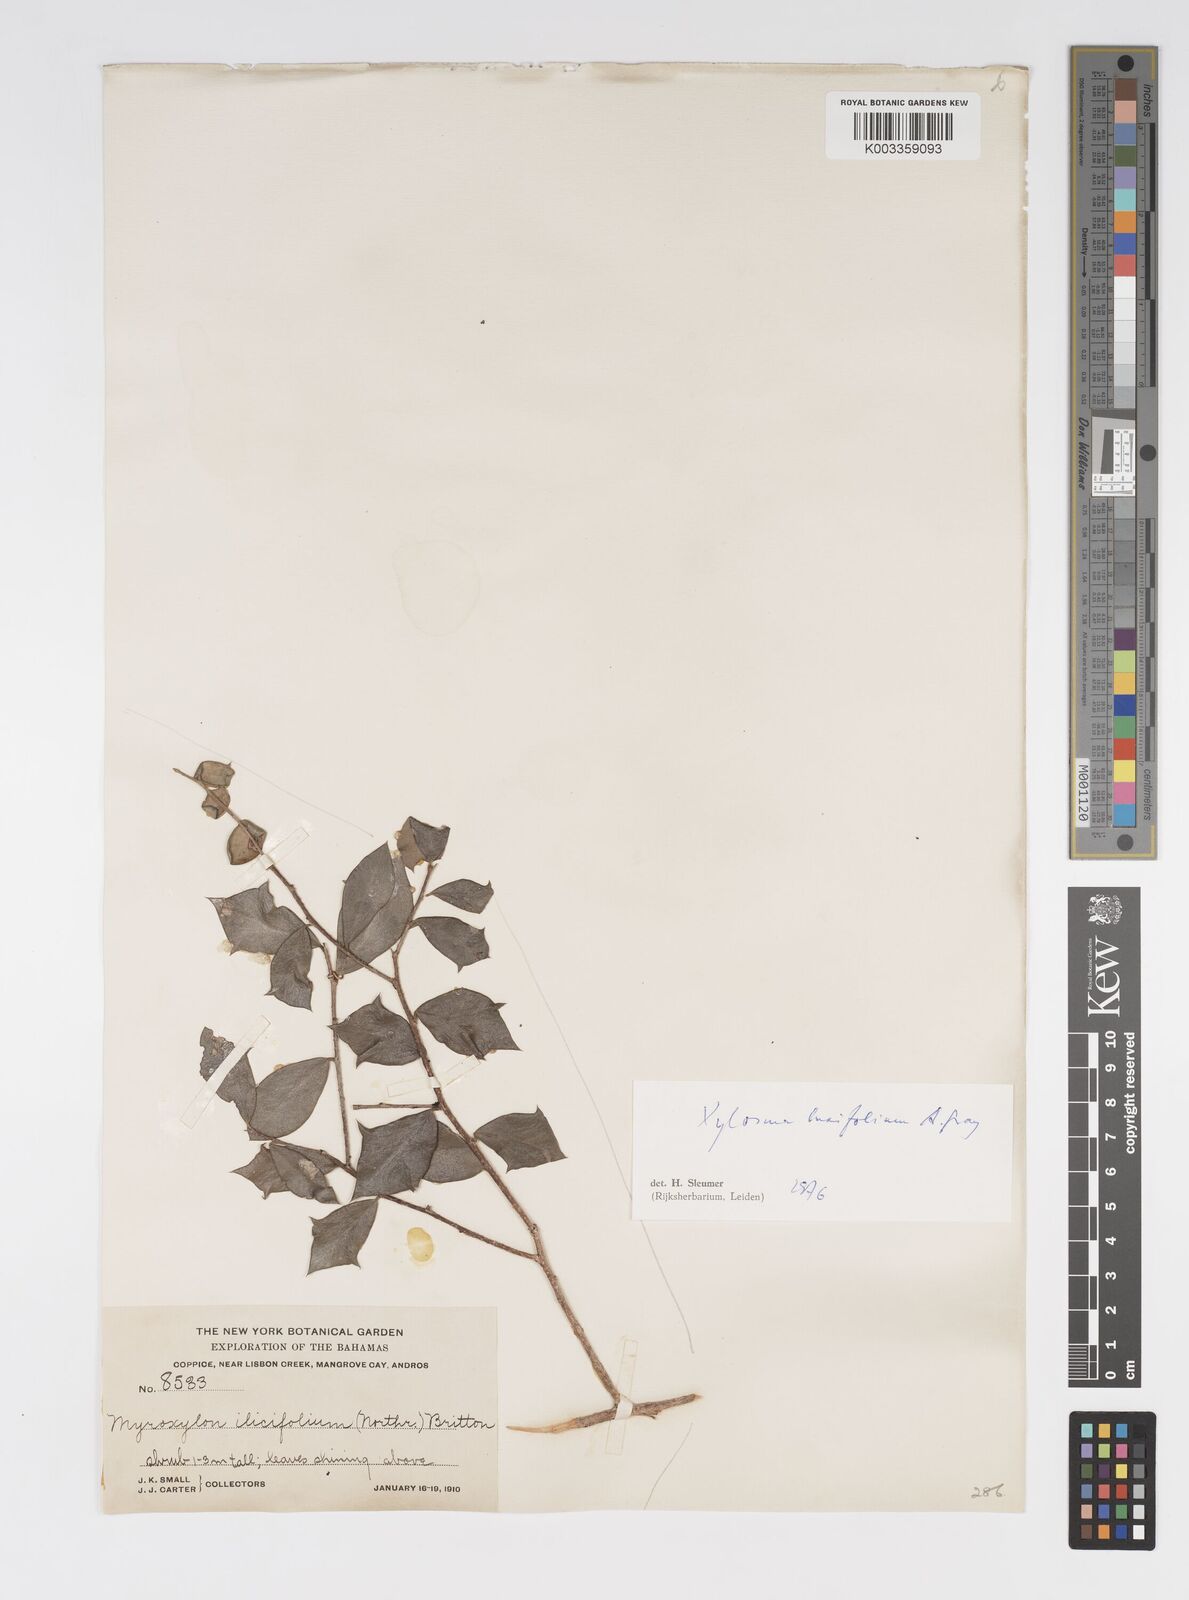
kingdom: Plantae
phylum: Tracheophyta
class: Magnoliopsida
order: Malpighiales
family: Salicaceae
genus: Xylosma
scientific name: Xylosma buxifolia
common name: Cockspur
